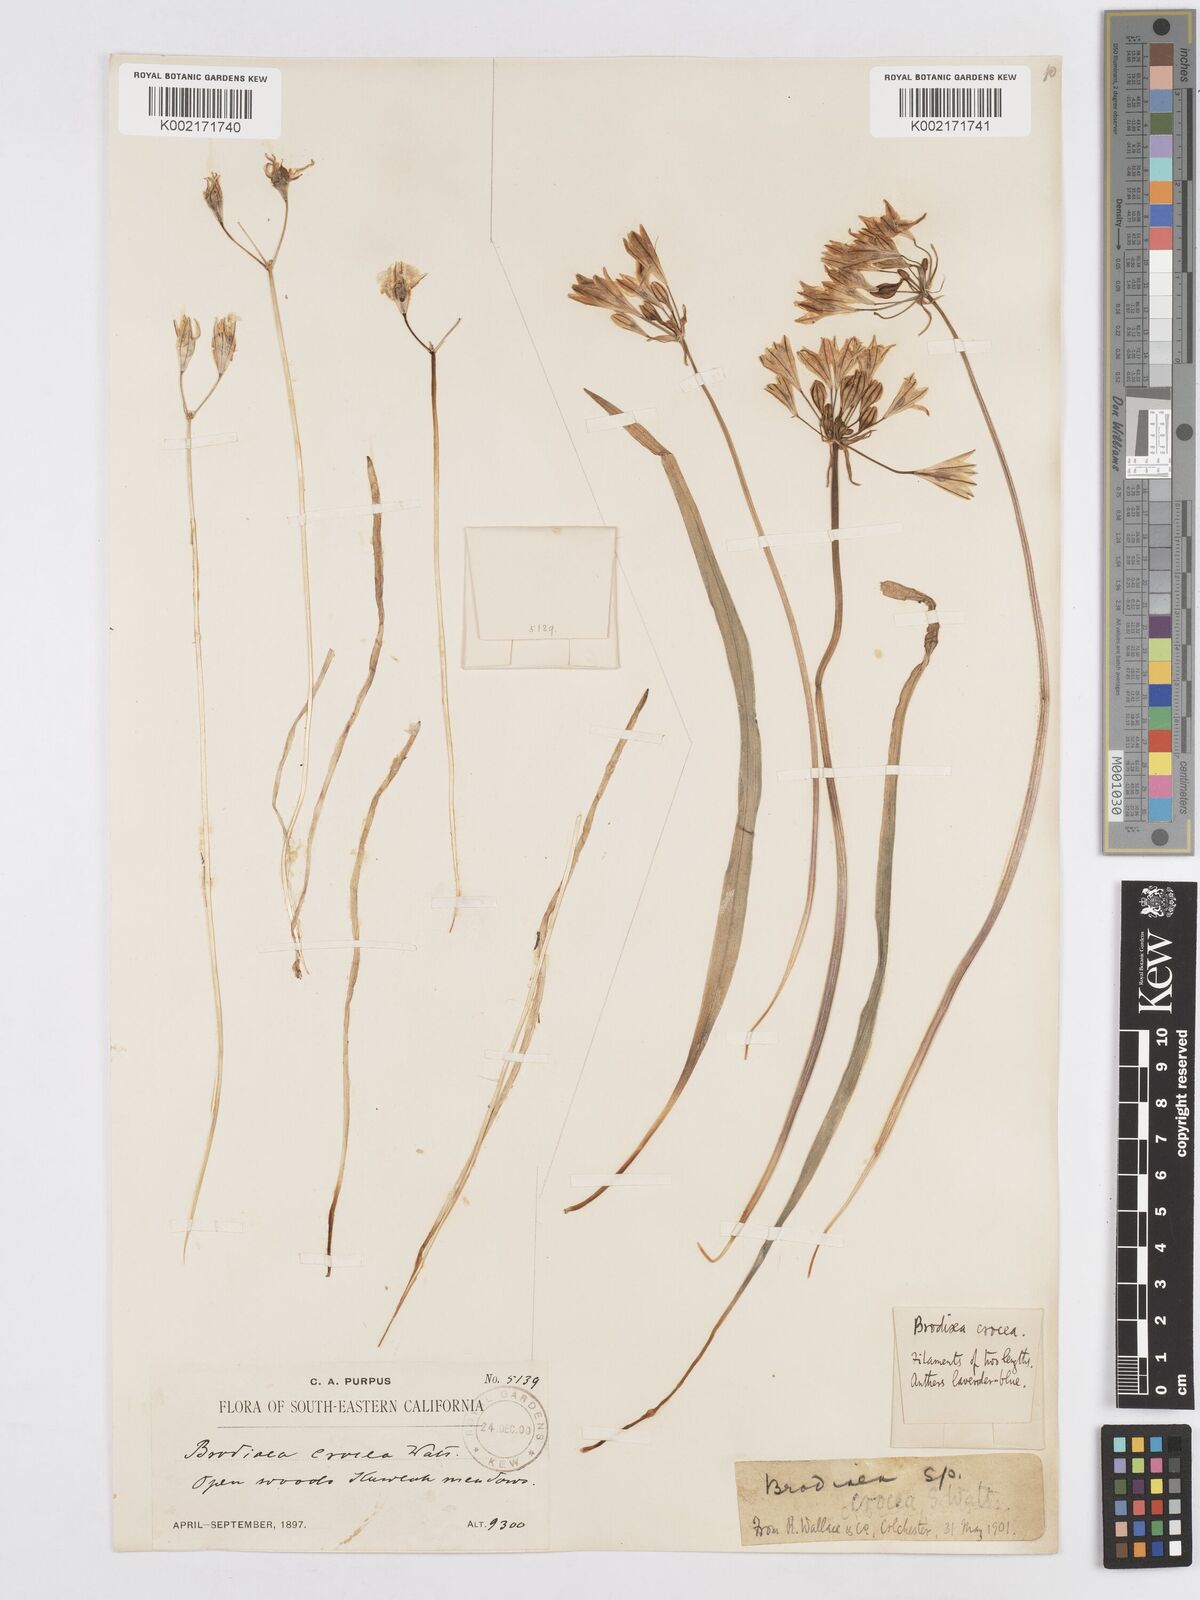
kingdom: Plantae
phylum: Tracheophyta
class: Liliopsida
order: Asparagales
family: Asparagaceae
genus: Triteleia
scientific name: Triteleia crocea
